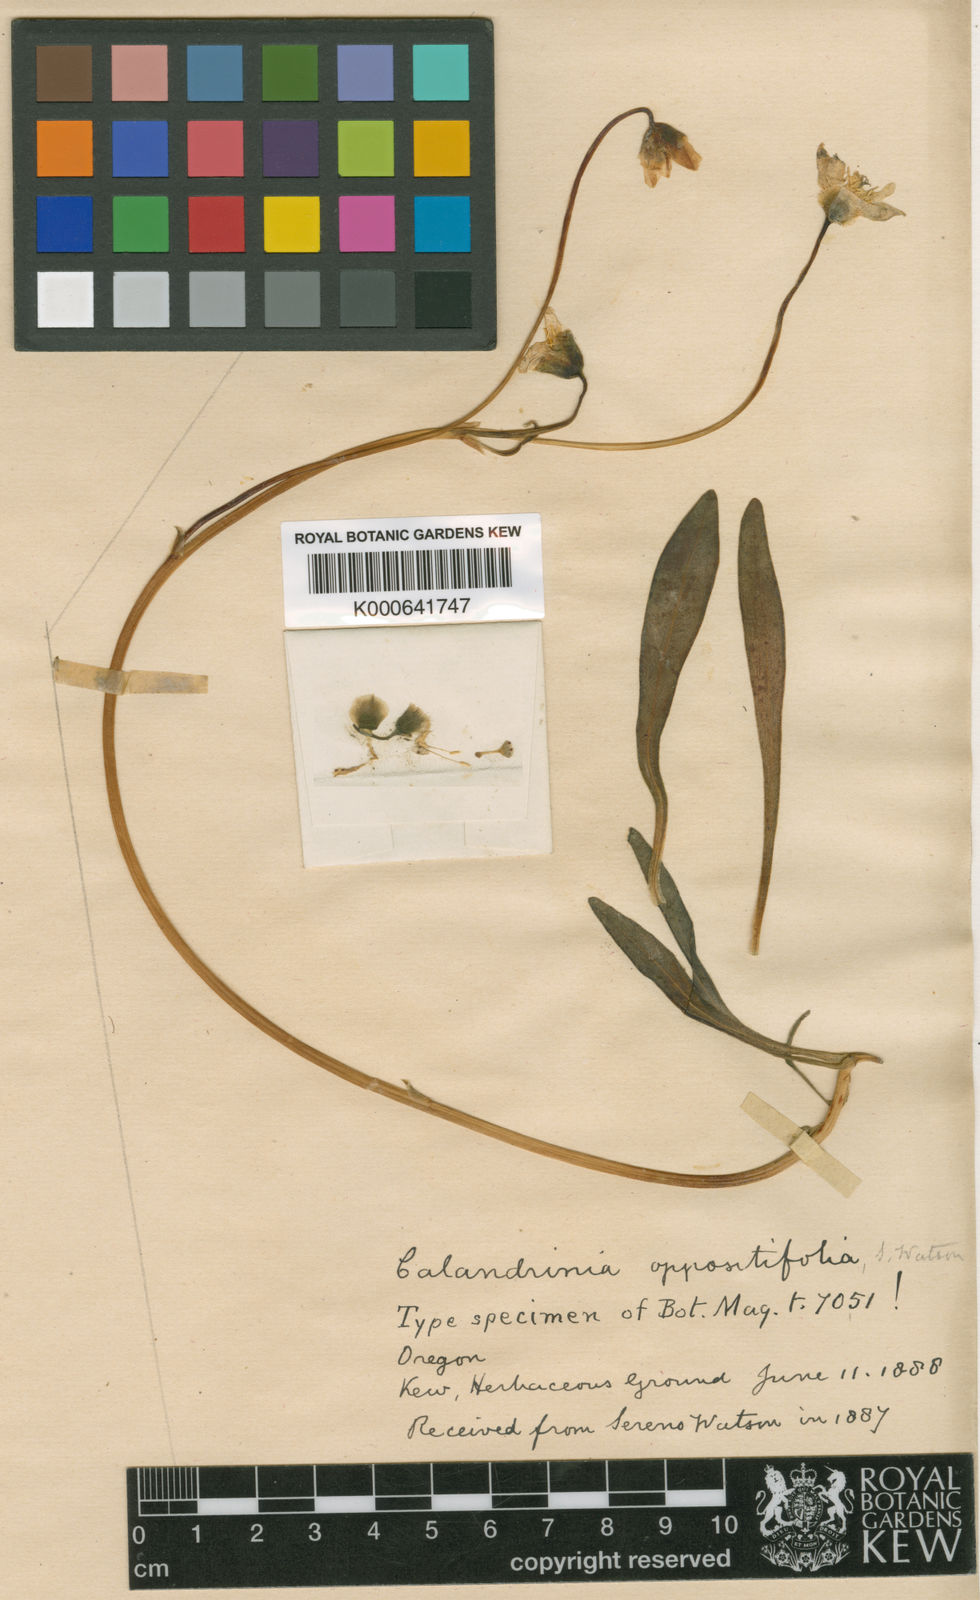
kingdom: Plantae
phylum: Tracheophyta
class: Magnoliopsida
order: Caryophyllales
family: Montiaceae
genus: Lewisia
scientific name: Lewisia oppositifolia
